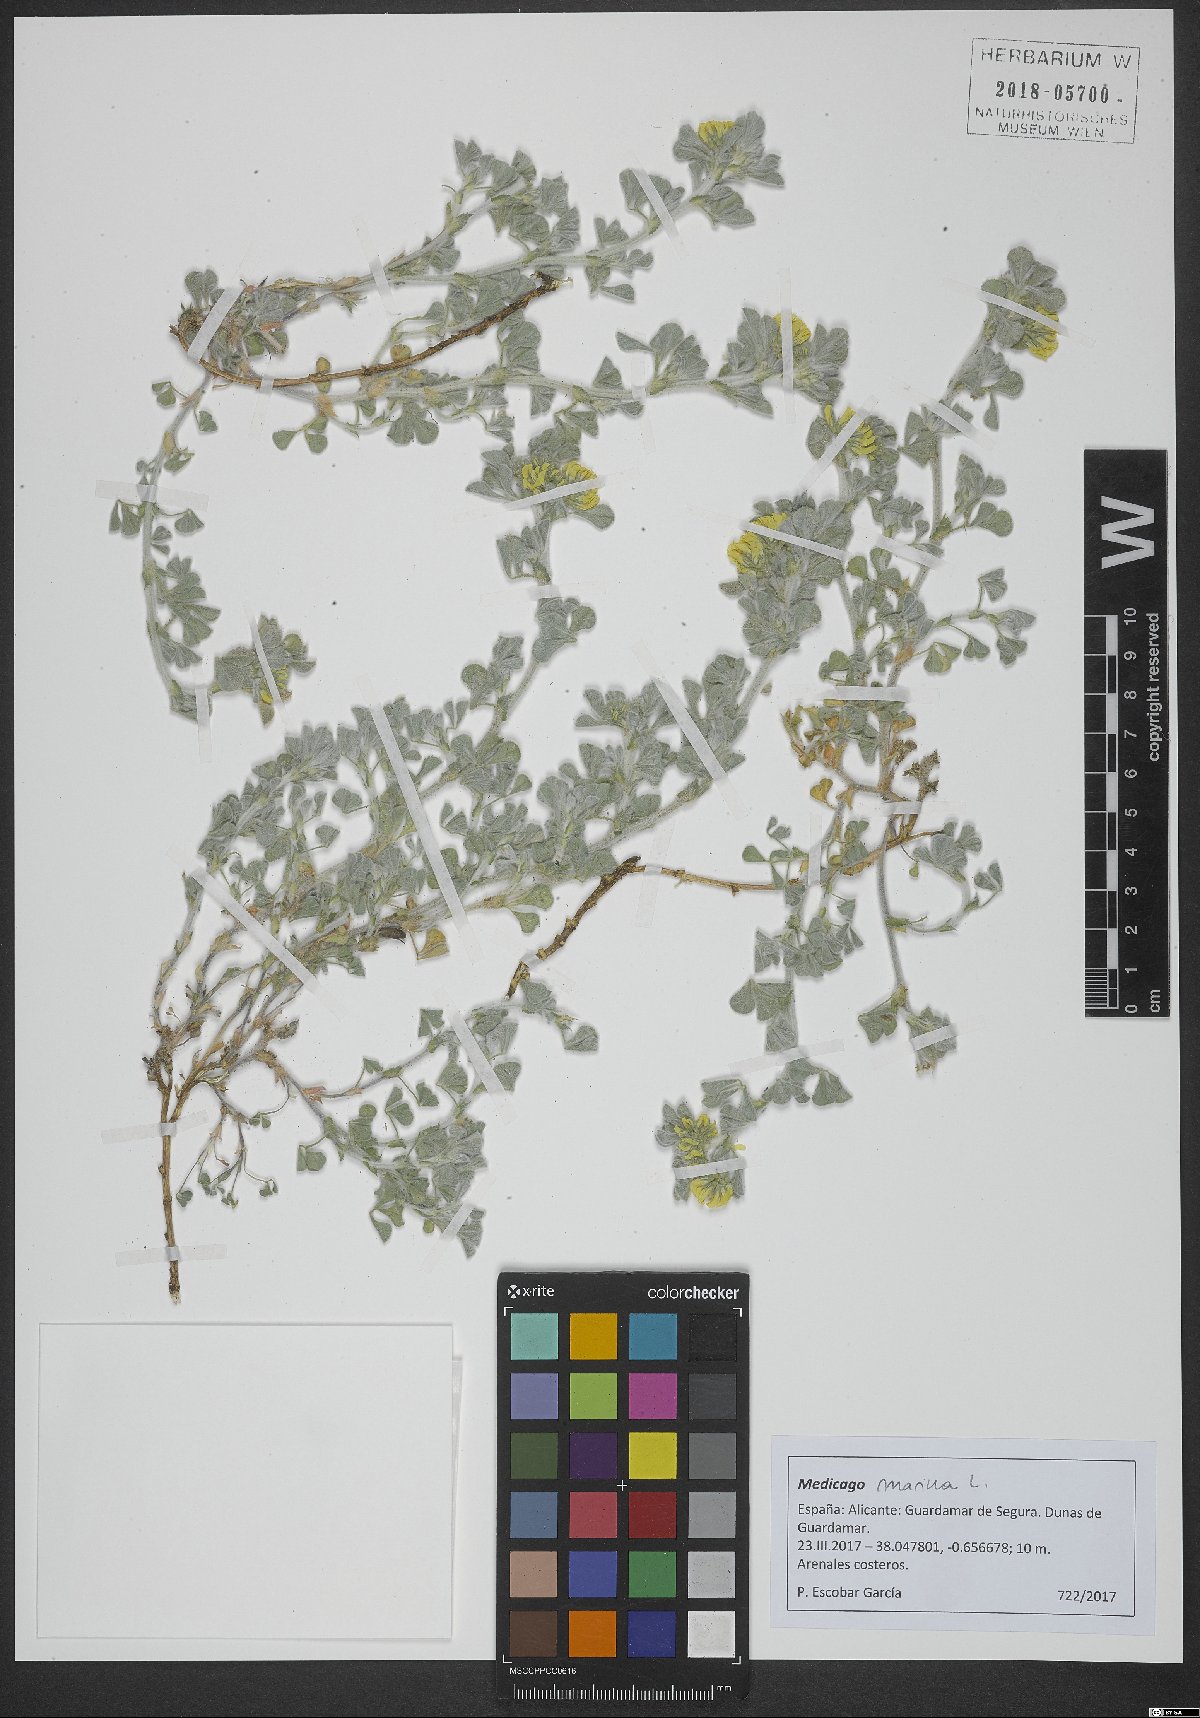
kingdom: Plantae
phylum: Tracheophyta
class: Magnoliopsida
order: Fabales
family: Fabaceae
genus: Medicago
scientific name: Medicago marina
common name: Sea medick
